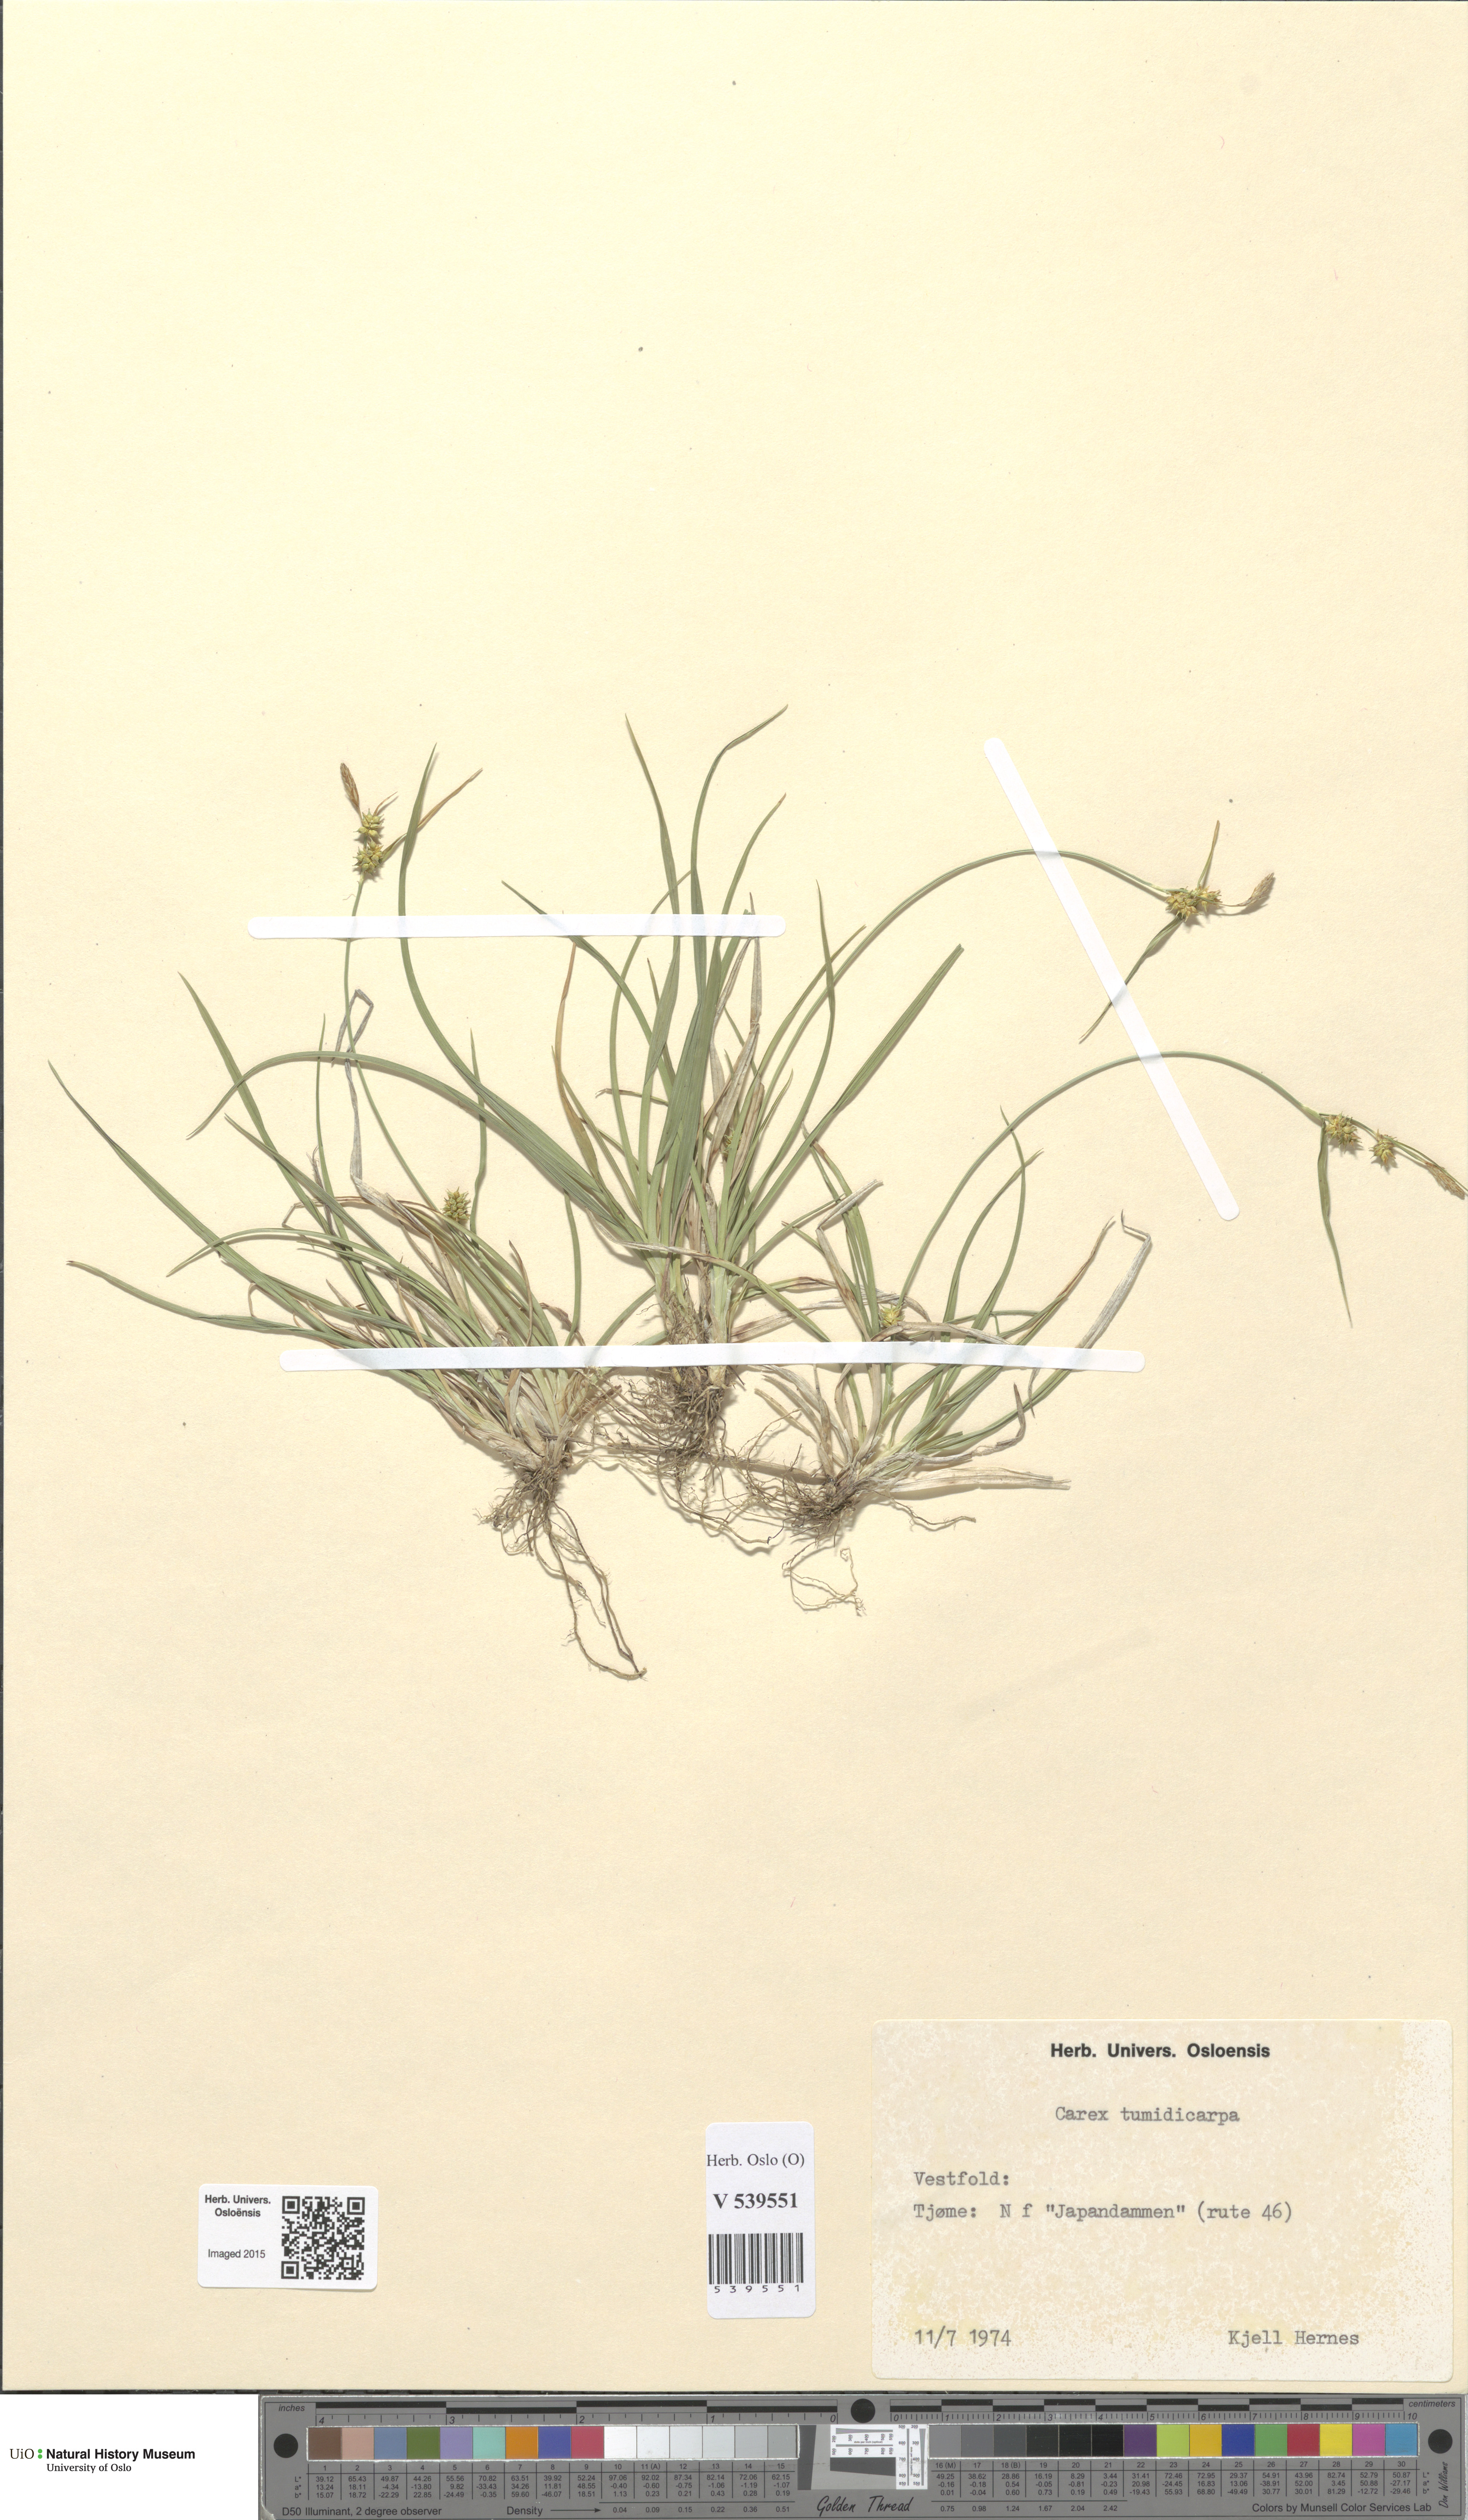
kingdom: Plantae
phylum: Tracheophyta
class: Liliopsida
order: Poales
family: Cyperaceae
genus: Carex
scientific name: Carex demissa
